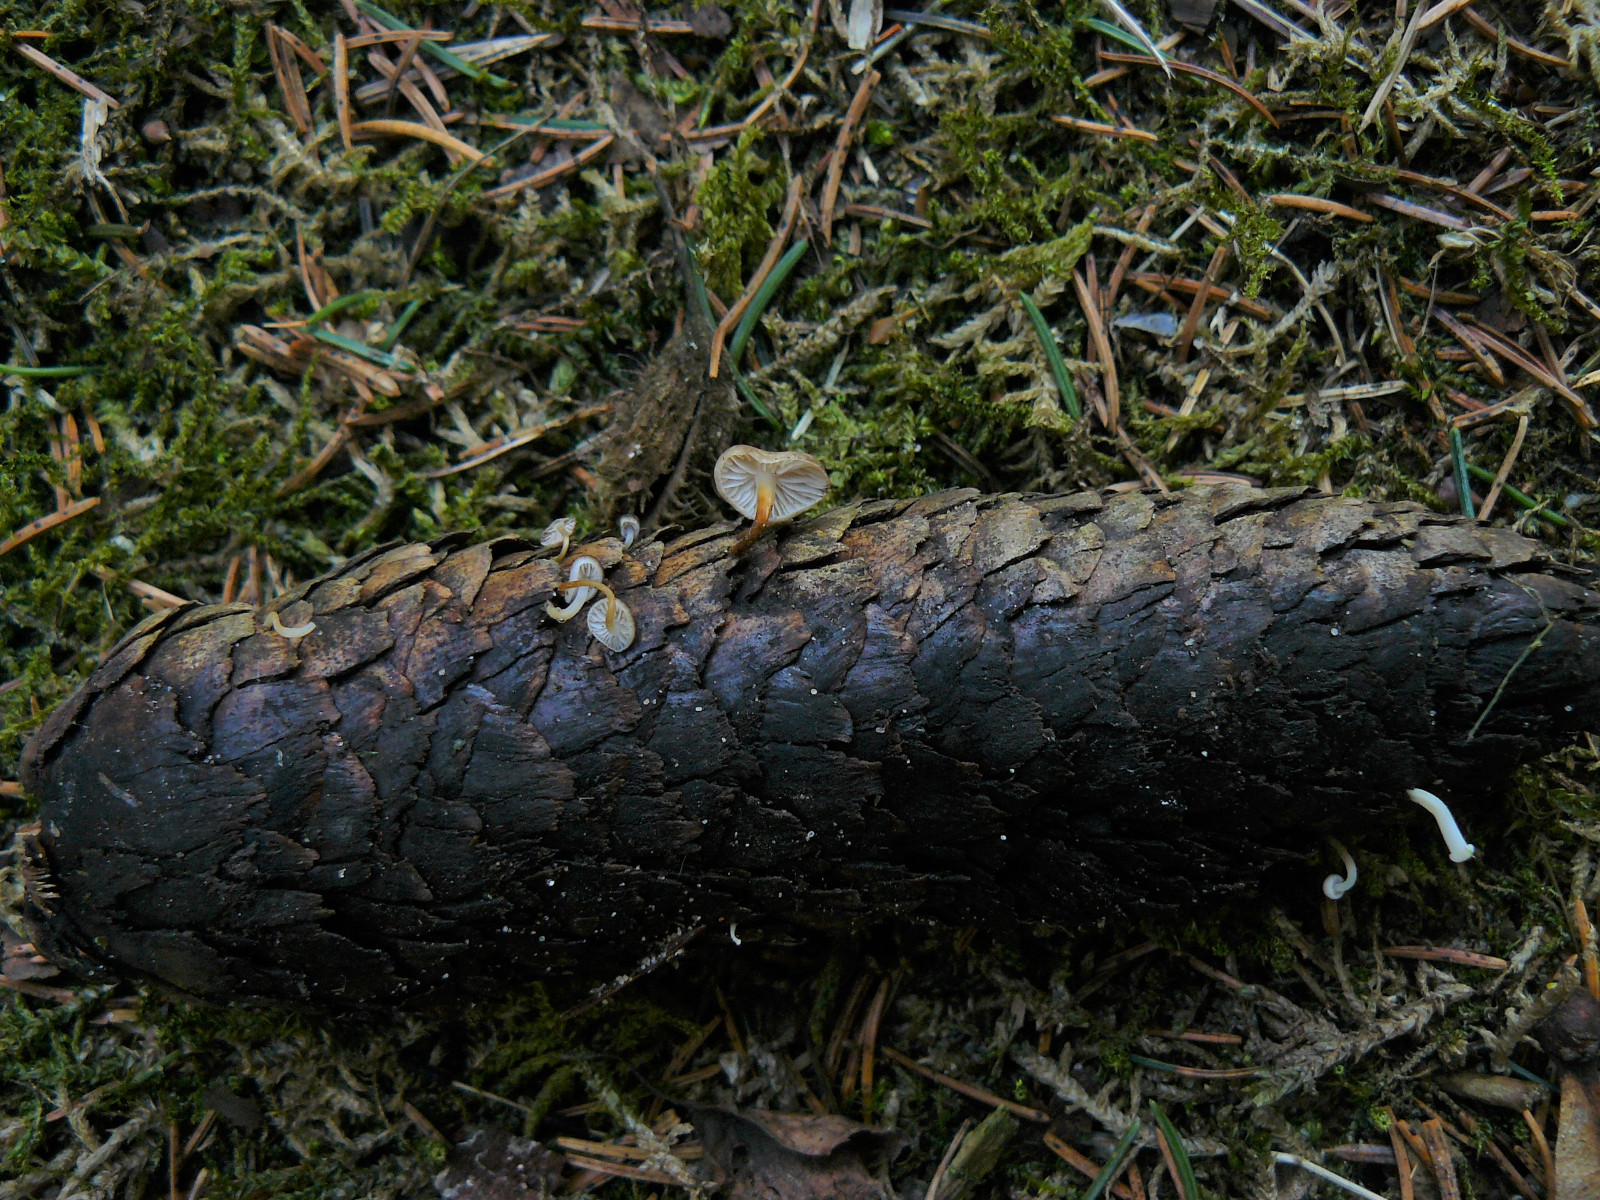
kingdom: Fungi
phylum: Basidiomycota
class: Agaricomycetes
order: Agaricales
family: Physalacriaceae
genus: Strobilurus
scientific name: Strobilurus esculentus
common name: gran-koglehat
